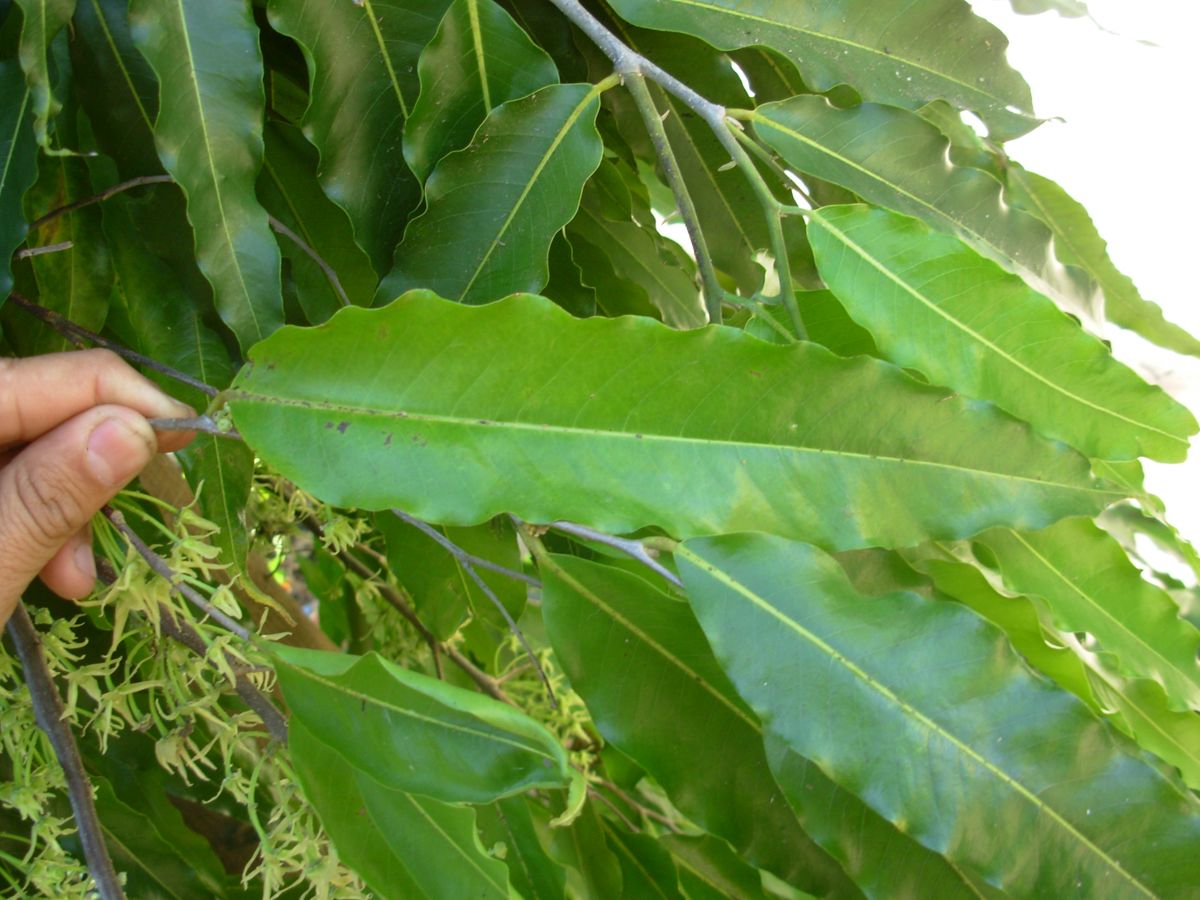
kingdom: Plantae
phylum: Tracheophyta
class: Magnoliopsida
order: Magnoliales
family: Annonaceae
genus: Polyalthia
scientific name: Polyalthia longifolia
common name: Cemetery-tree
